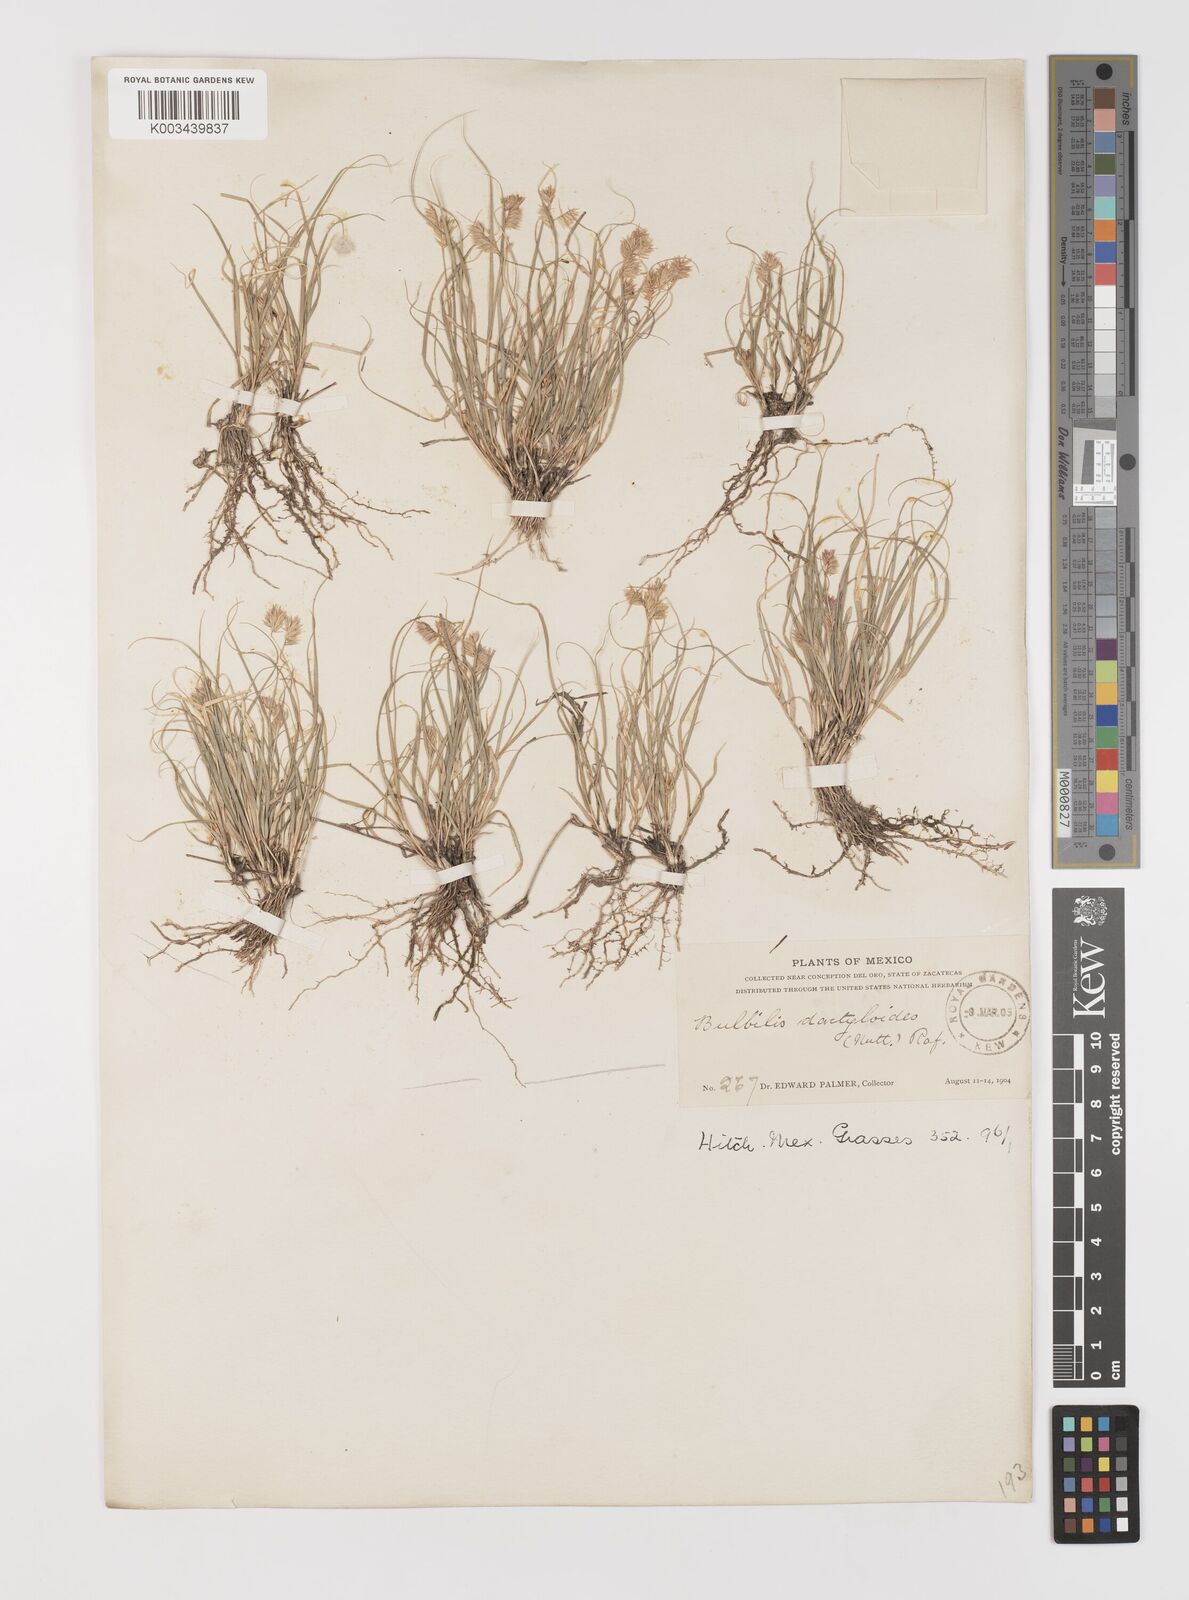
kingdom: Plantae
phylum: Tracheophyta
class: Liliopsida
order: Poales
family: Poaceae
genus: Bouteloua
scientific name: Bouteloua dactyloides
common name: Buffalo grass
